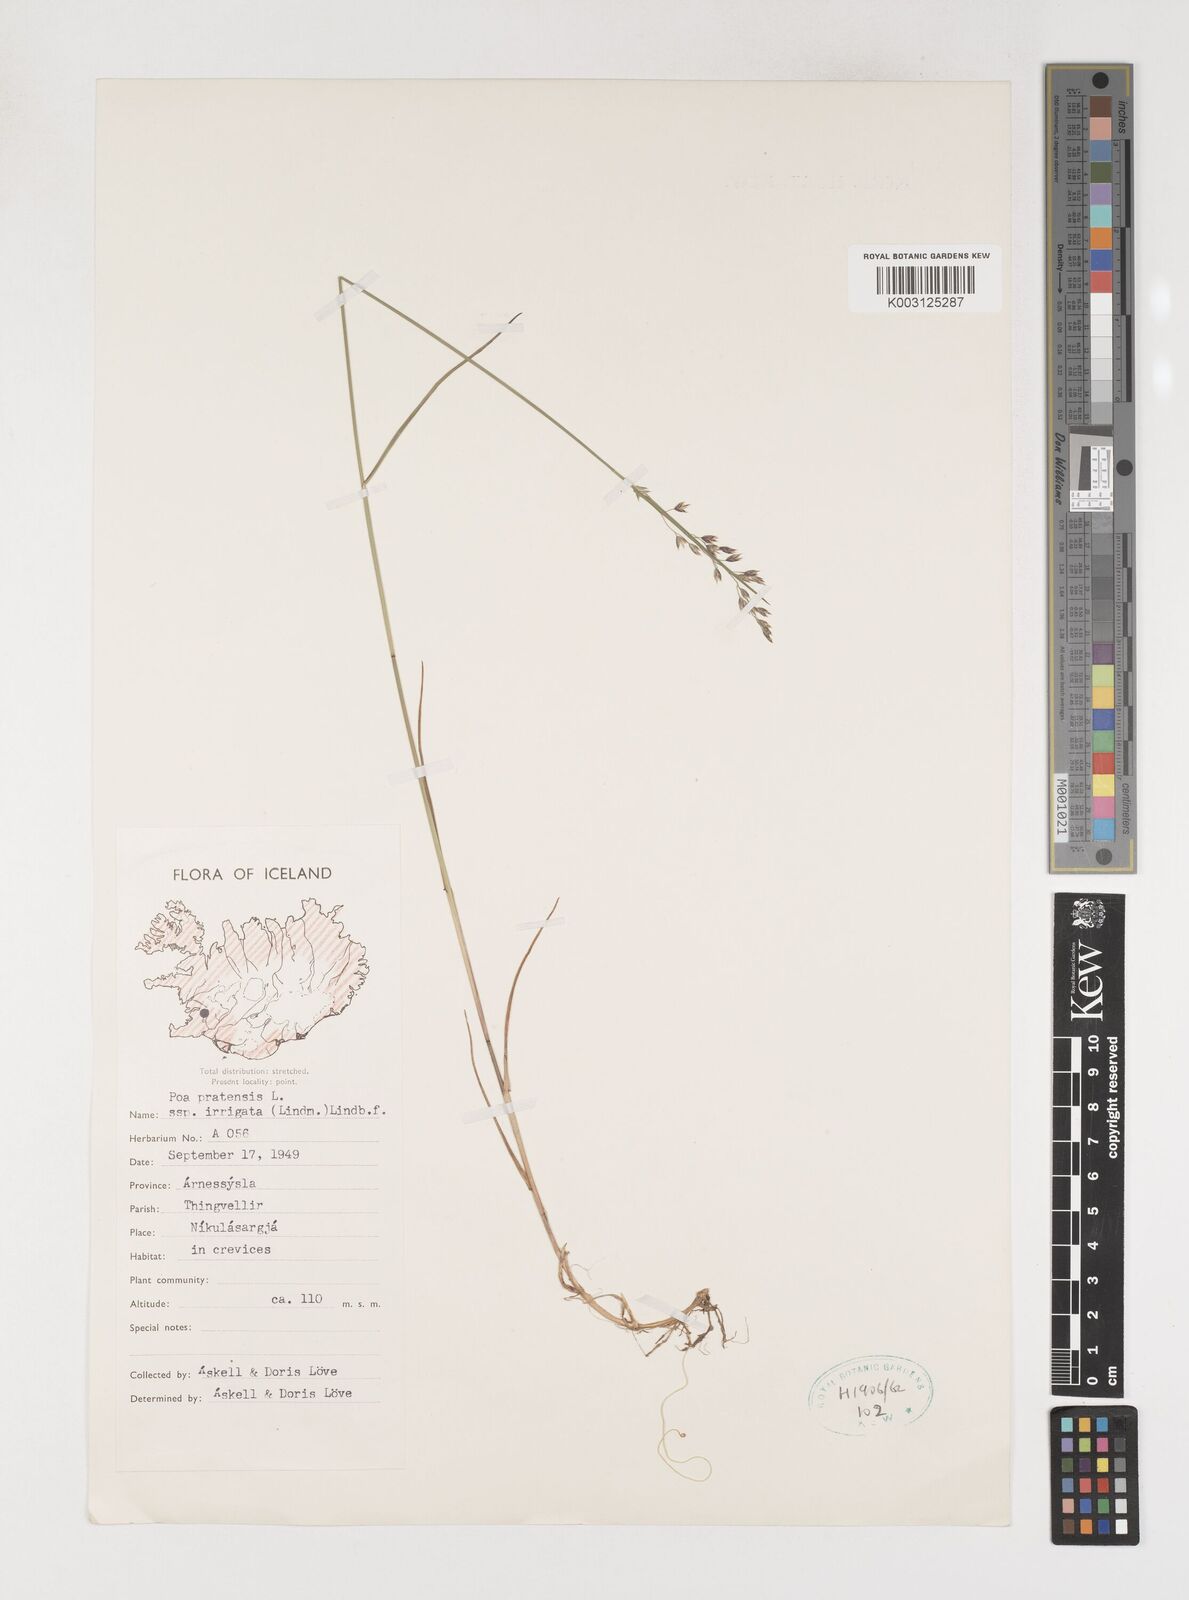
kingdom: Plantae
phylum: Tracheophyta
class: Liliopsida
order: Poales
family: Poaceae
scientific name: Poaceae
